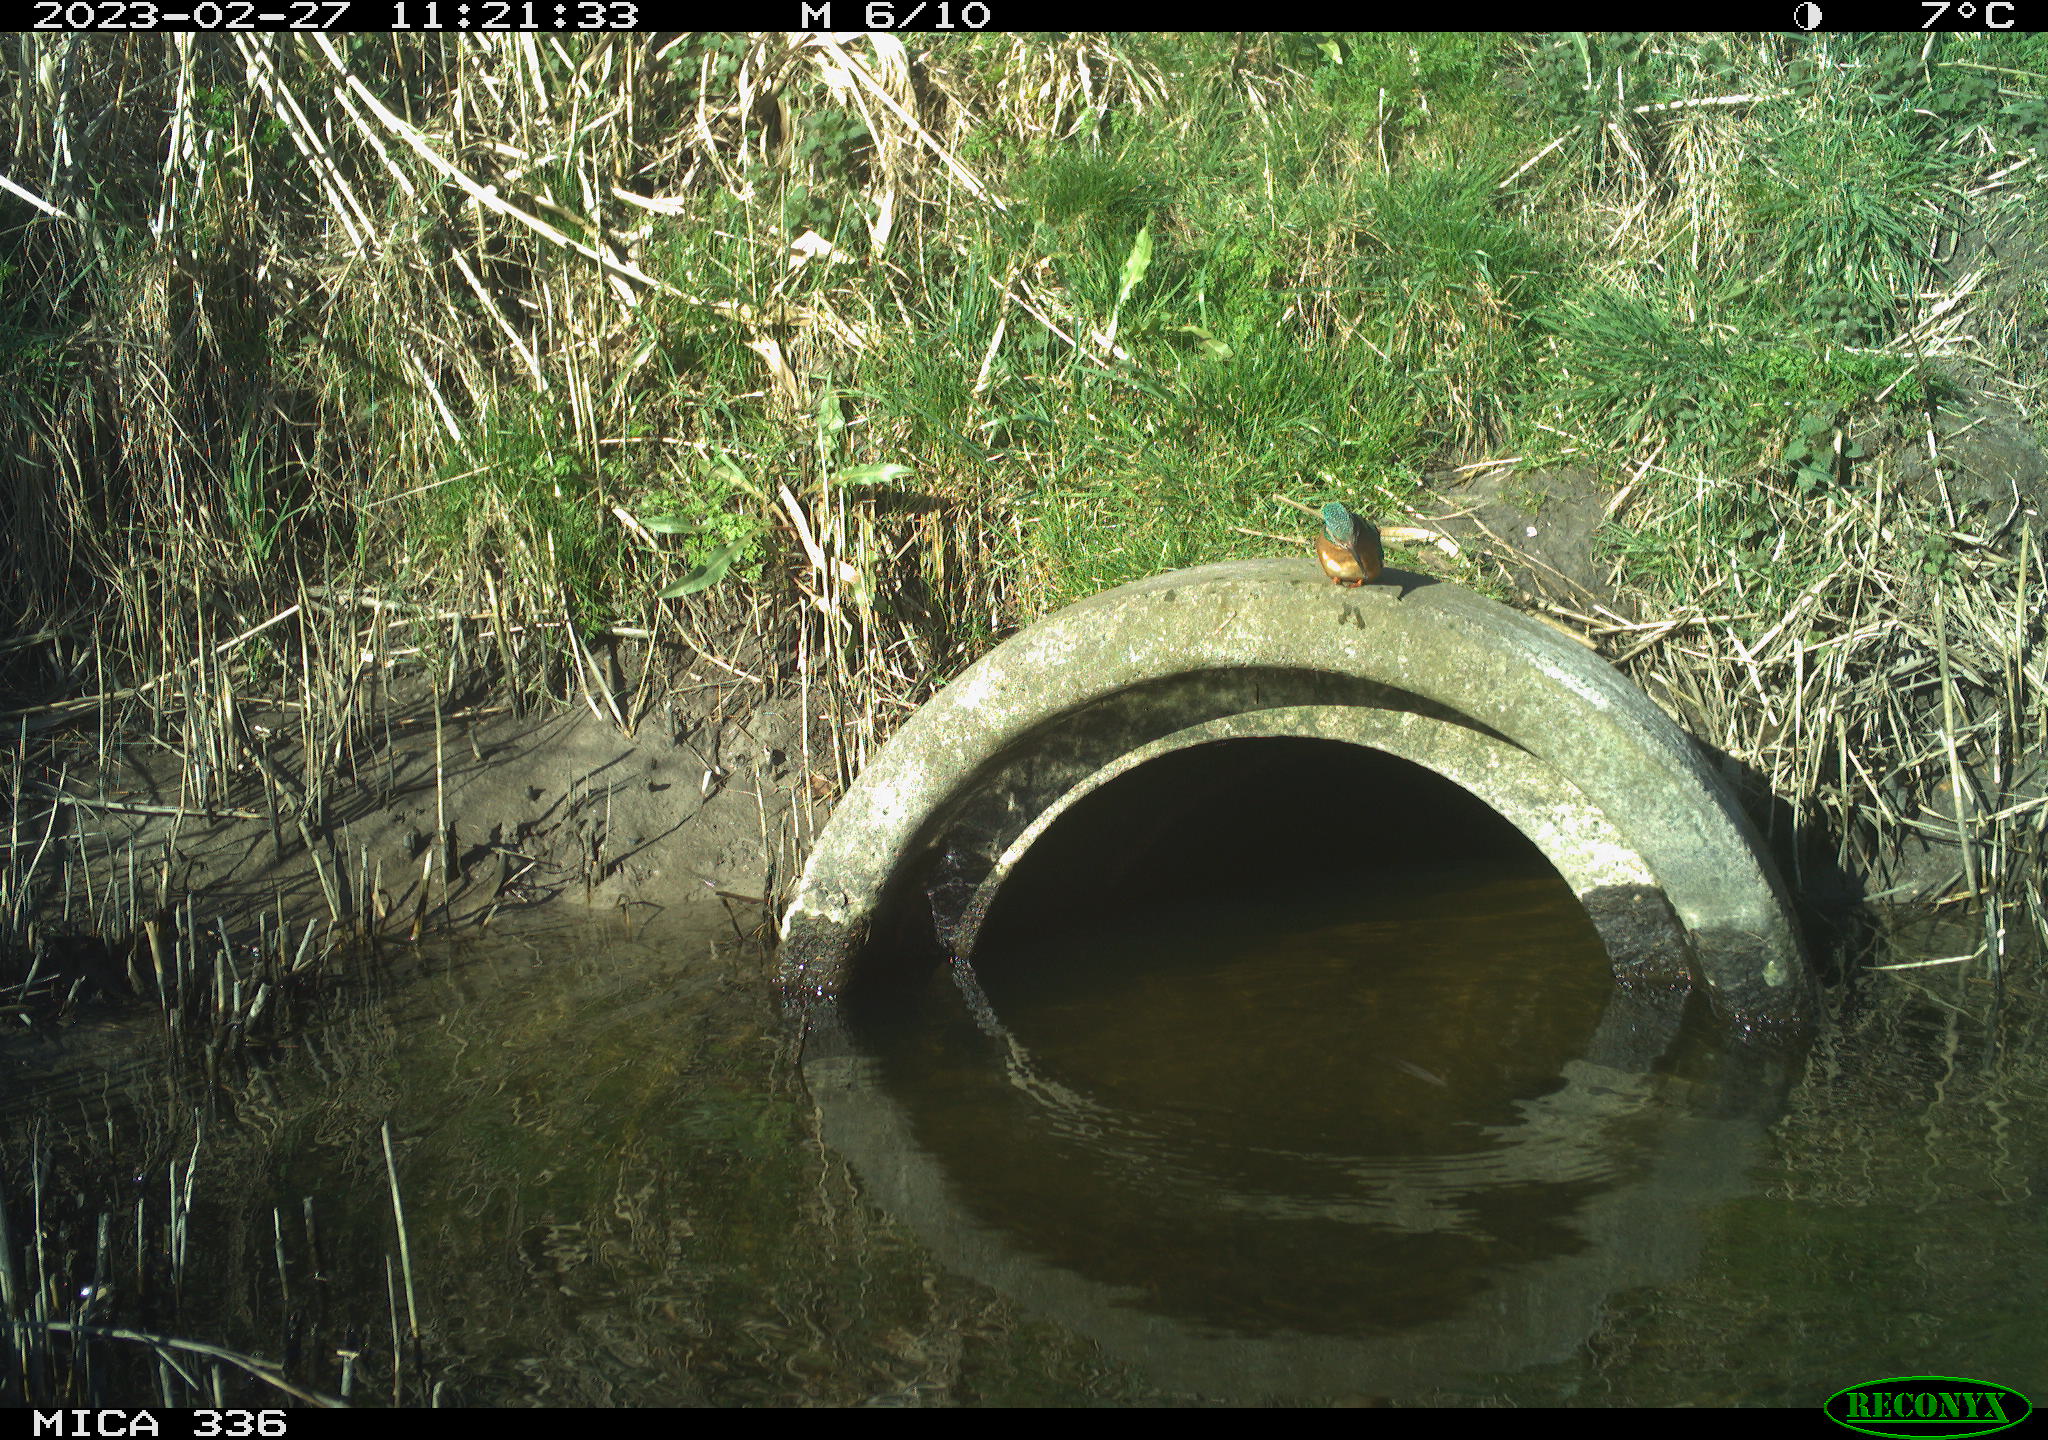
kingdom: Animalia
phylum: Chordata
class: Aves
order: Coraciiformes
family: Alcedinidae
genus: Alcedo
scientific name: Alcedo atthis
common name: Common kingfisher
